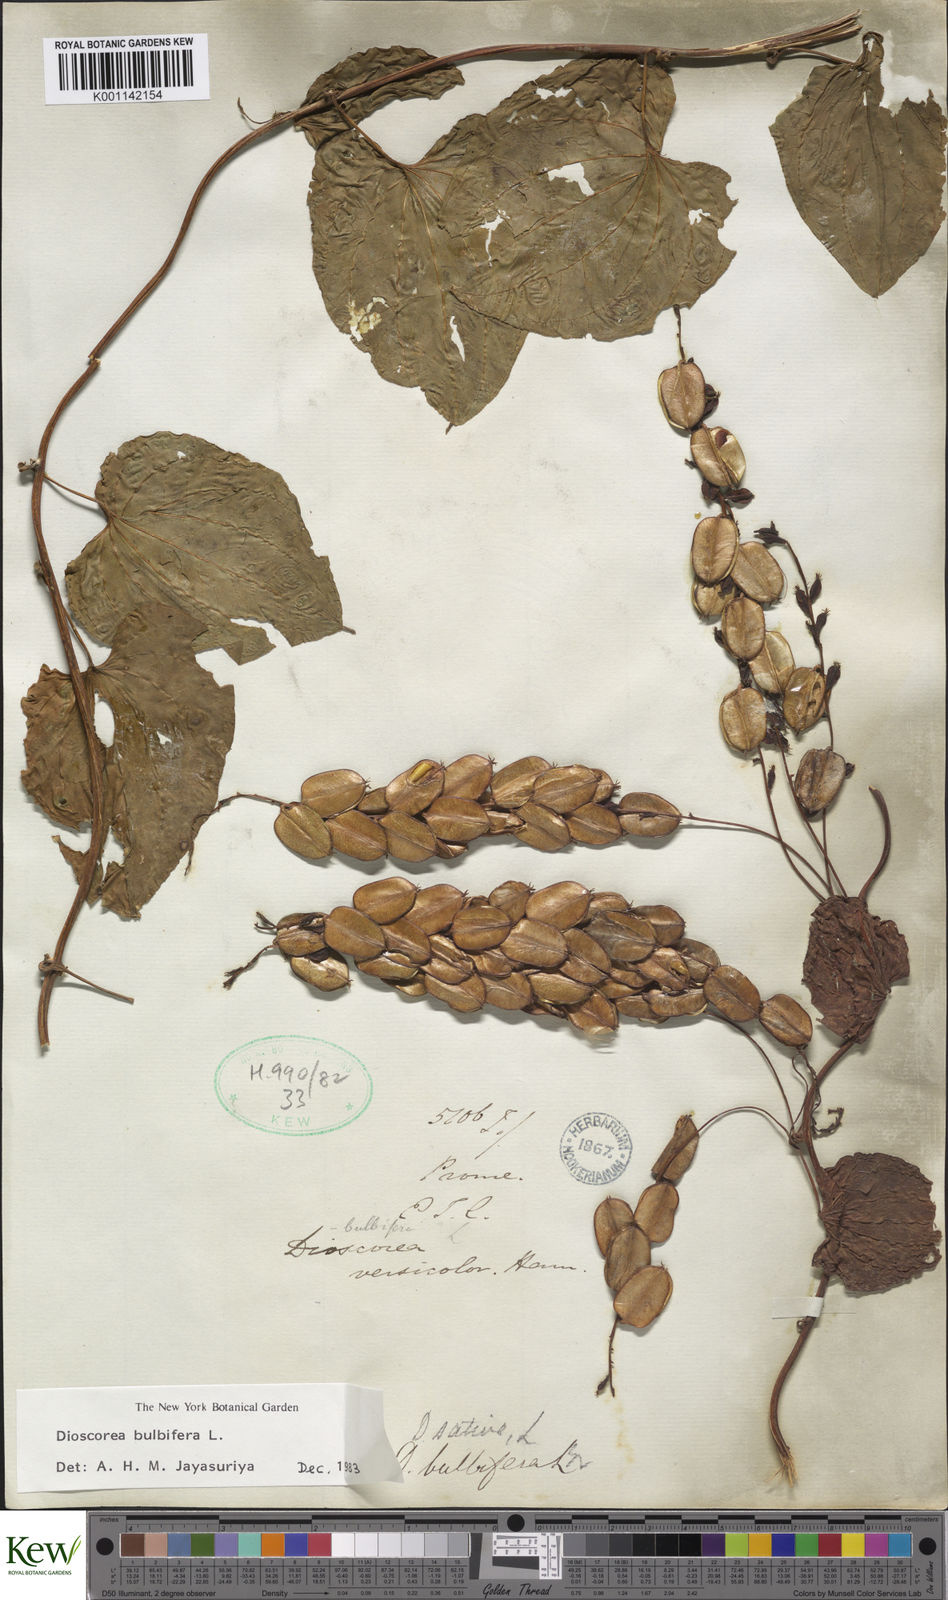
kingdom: Plantae
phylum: Tracheophyta
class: Liliopsida
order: Dioscoreales
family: Dioscoreaceae
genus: Dioscorea
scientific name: Dioscorea bulbifera
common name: Air yam
